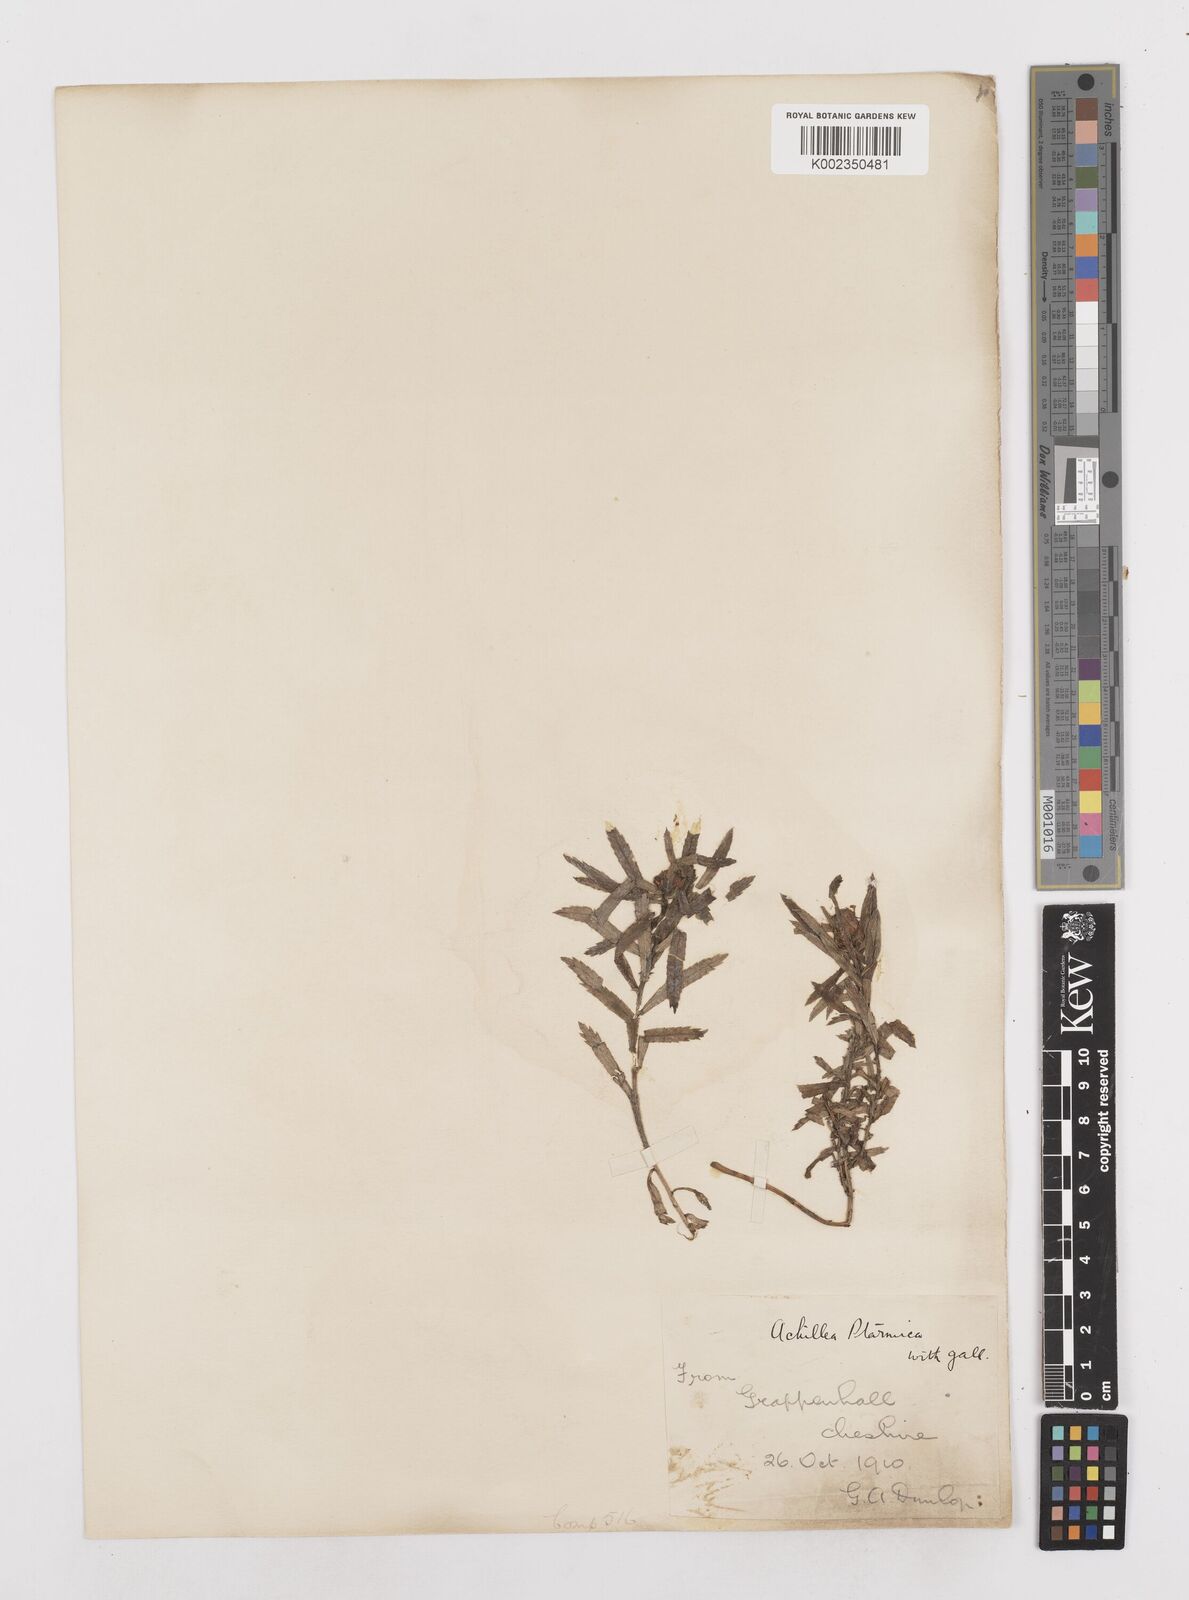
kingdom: Plantae
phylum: Tracheophyta
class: Magnoliopsida
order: Asterales
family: Asteraceae
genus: Achillea
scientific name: Achillea ptarmica
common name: Sneezeweed
